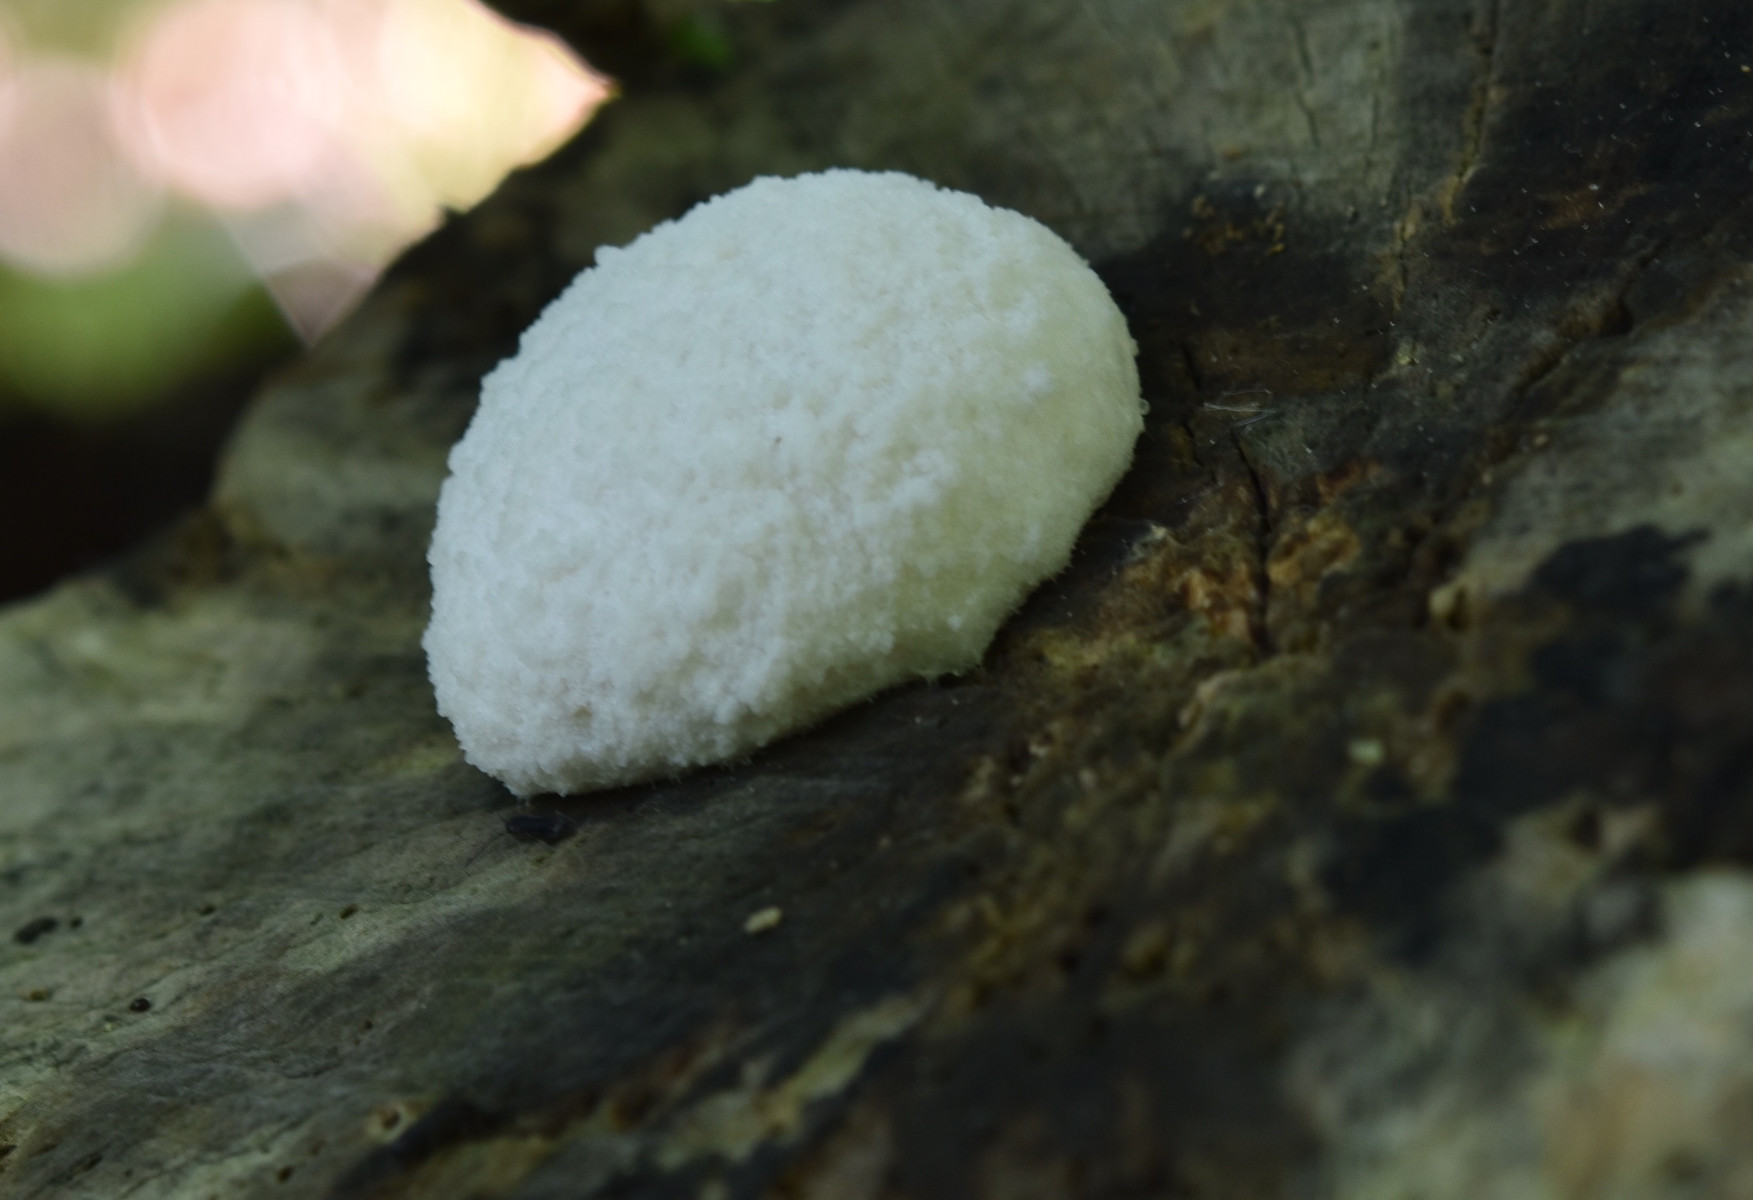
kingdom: Protozoa
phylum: Mycetozoa
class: Myxomycetes
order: Cribrariales
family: Tubiferaceae
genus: Reticularia
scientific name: Reticularia lycoperdon
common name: skinnende støvpude
